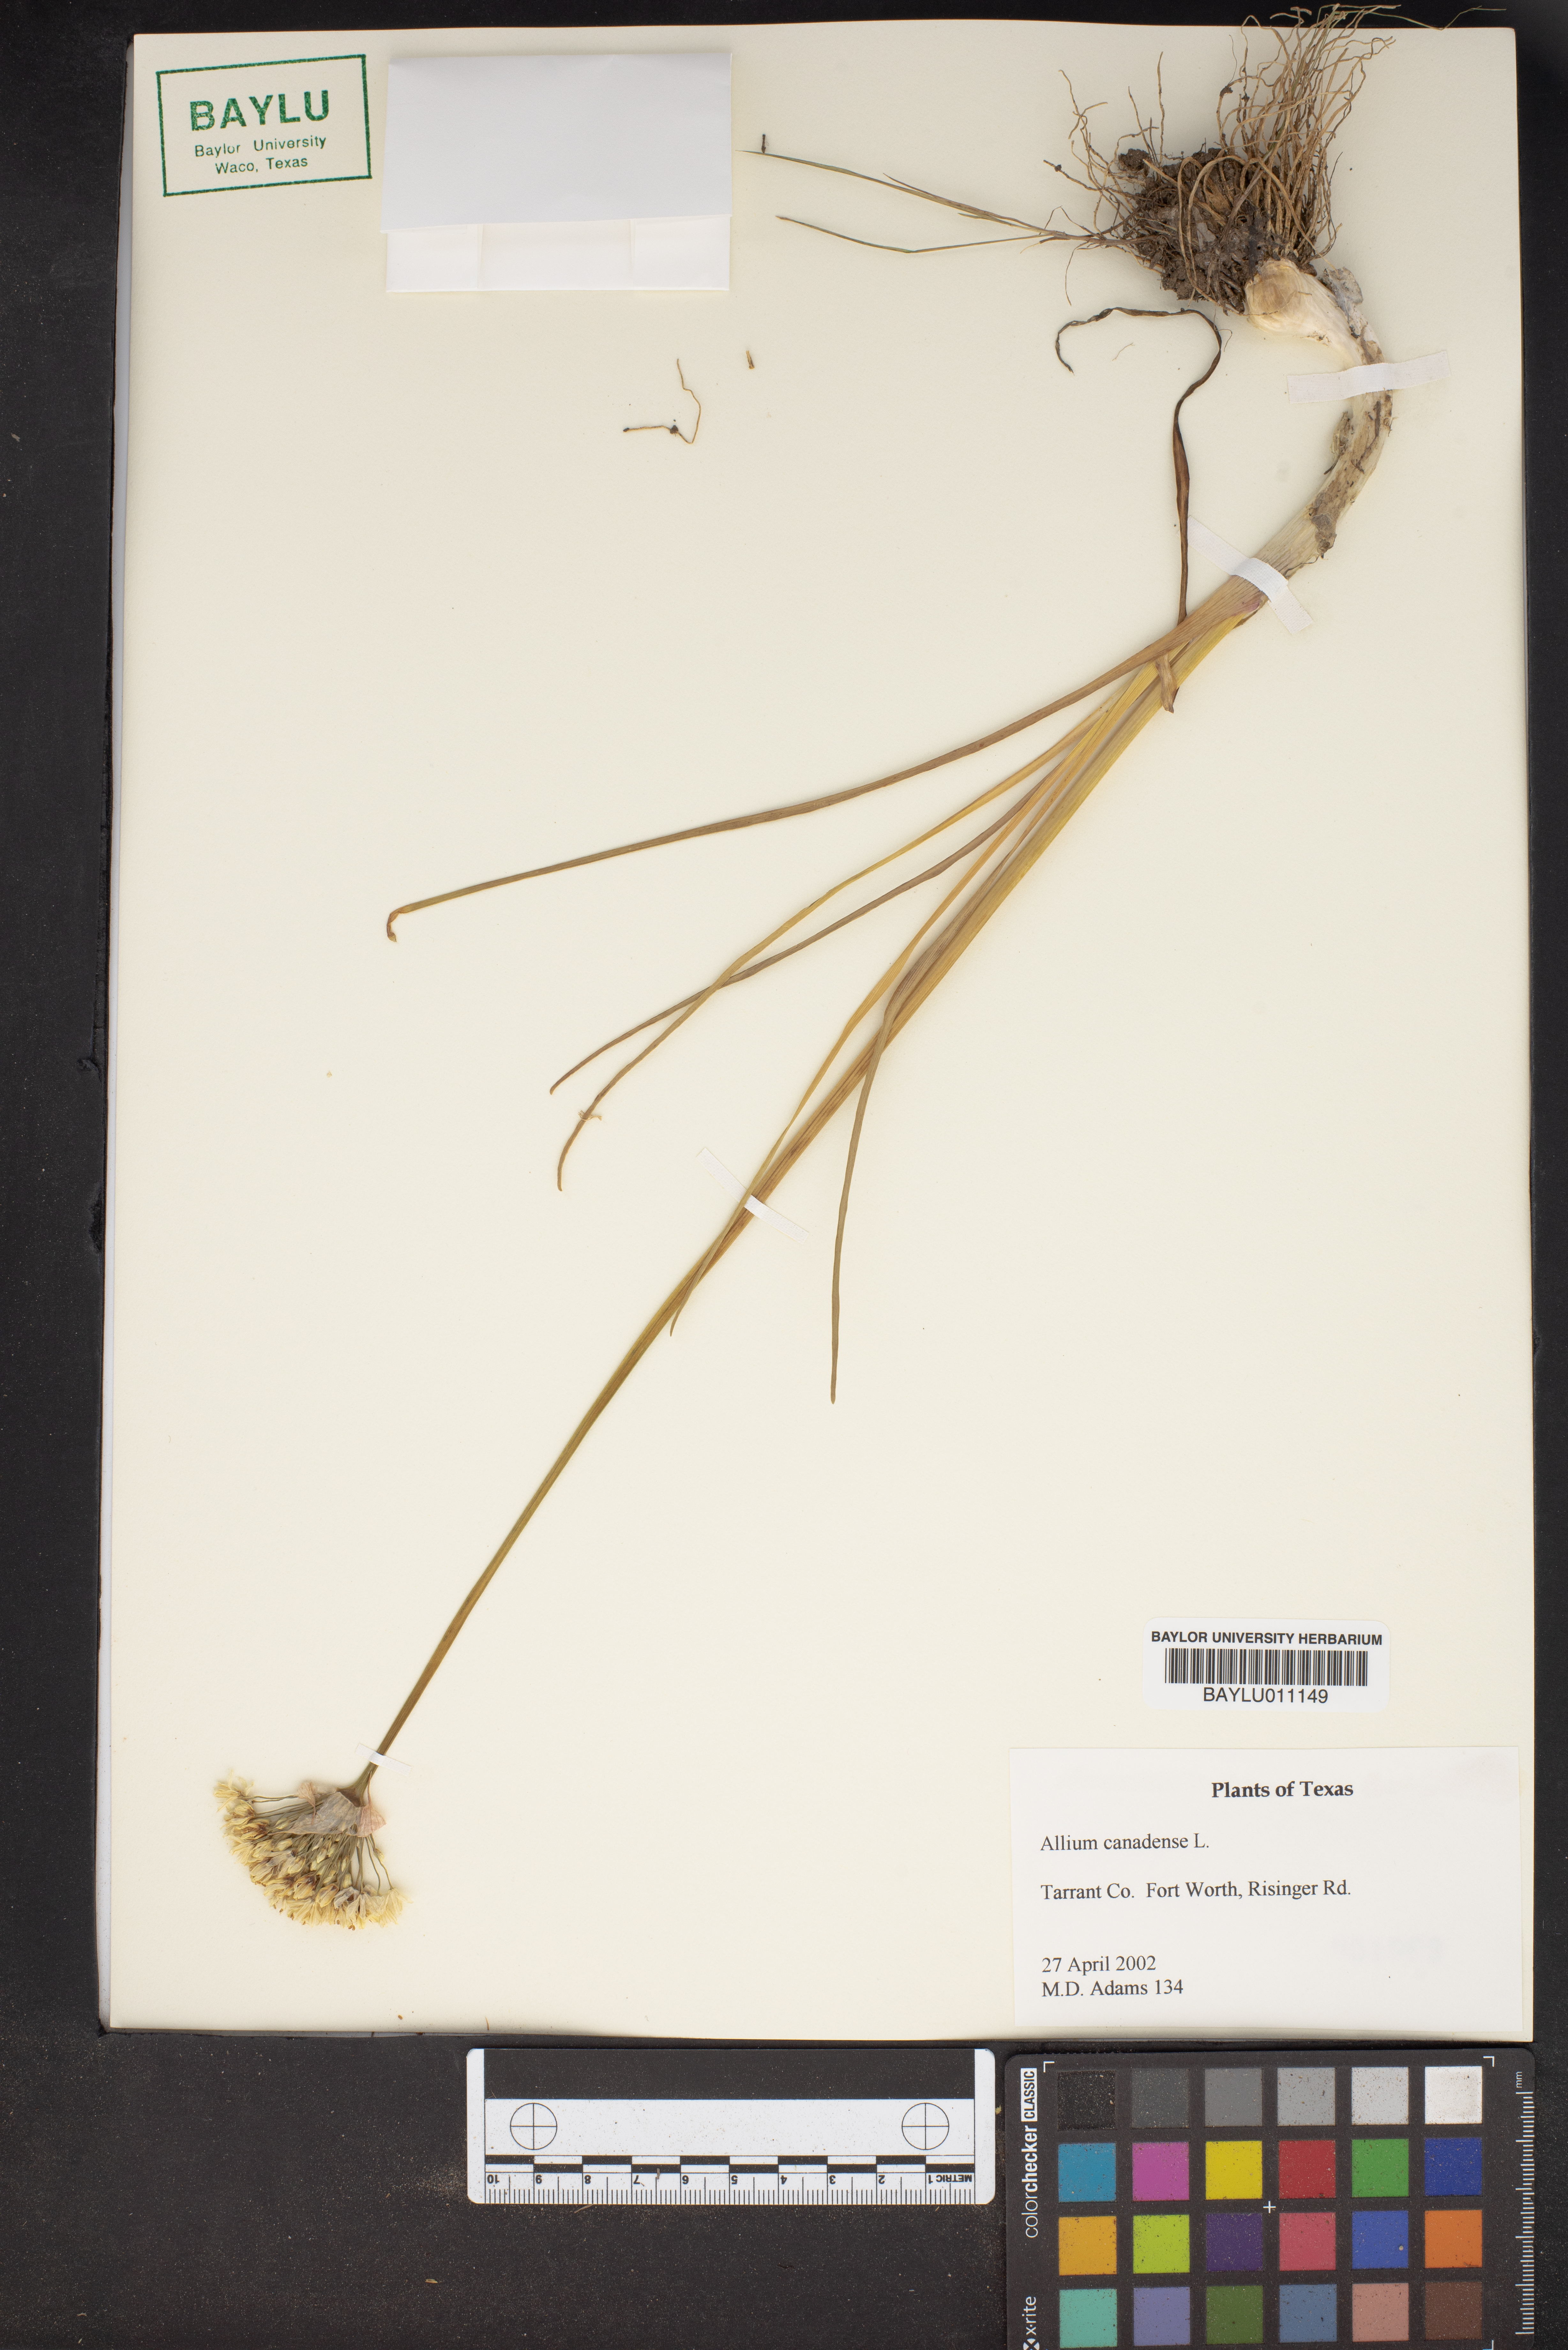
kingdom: Plantae
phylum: Tracheophyta
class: Liliopsida
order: Asparagales
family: Amaryllidaceae
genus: Allium
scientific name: Allium canadense
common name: Meadow garlic
